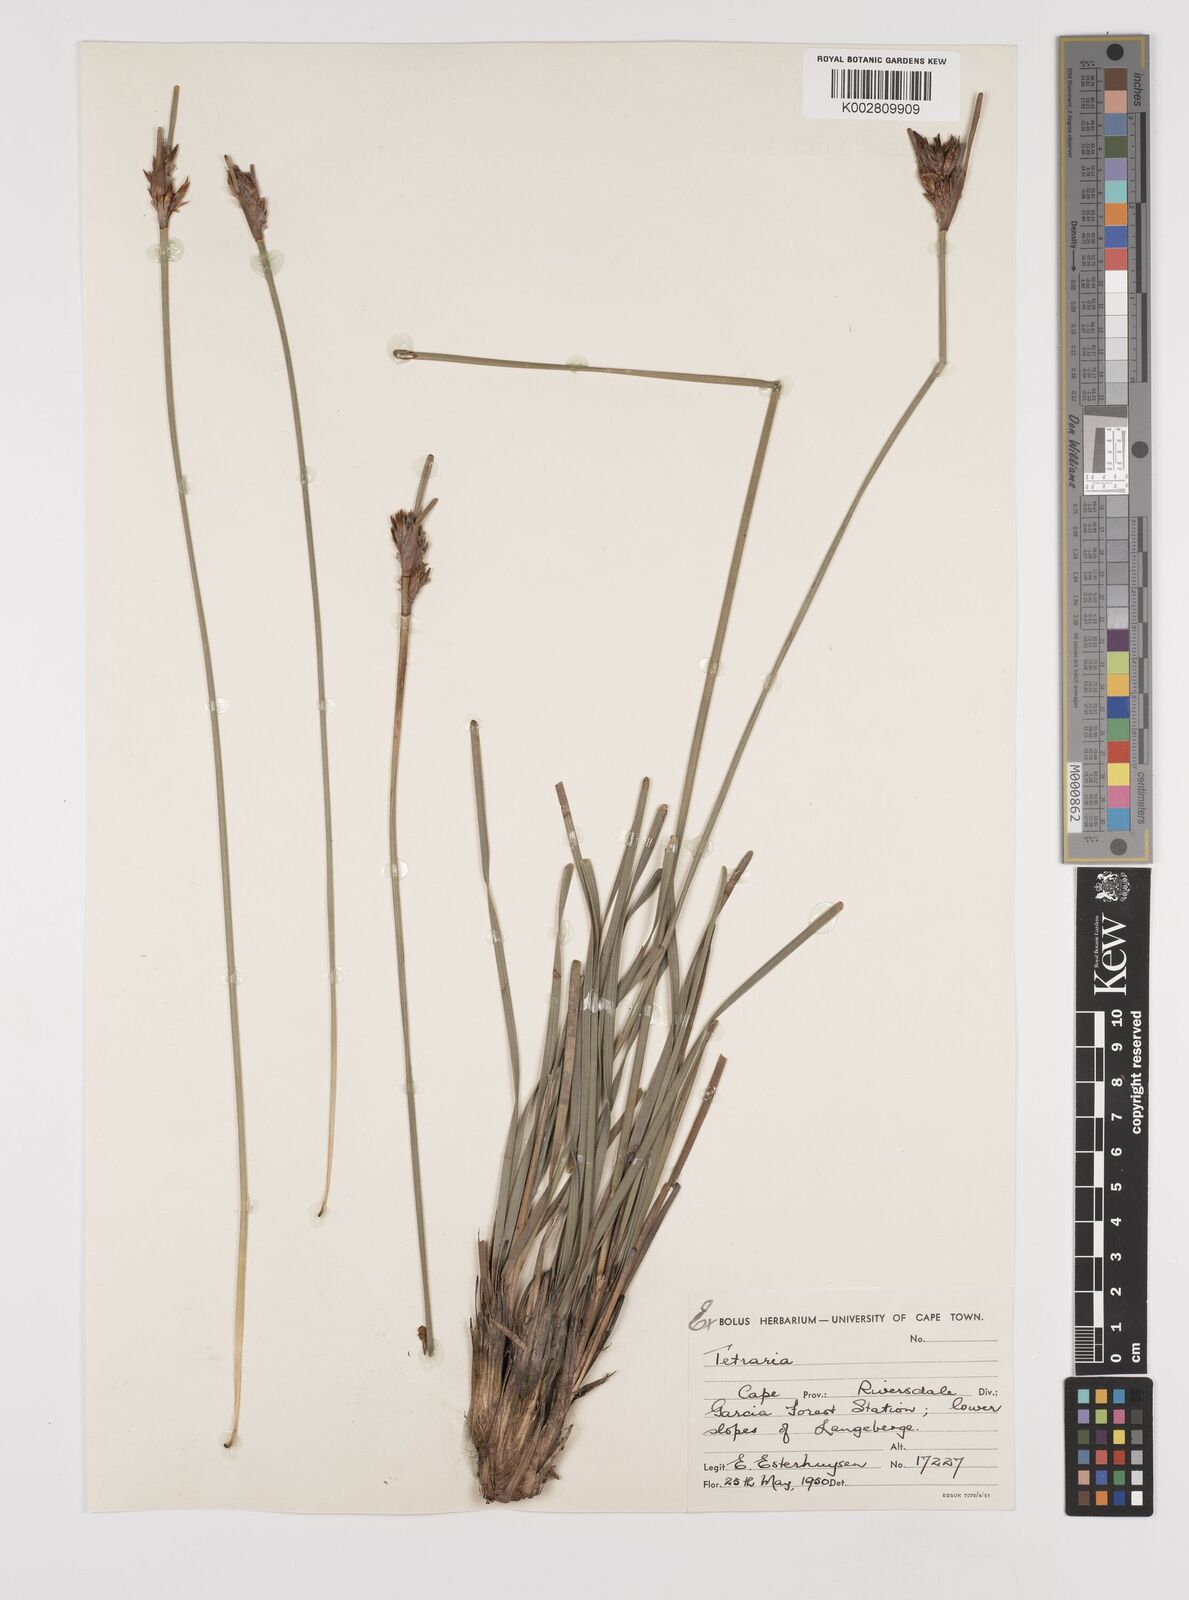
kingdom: Plantae
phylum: Tracheophyta
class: Liliopsida
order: Poales
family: Cyperaceae
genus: Schoenus
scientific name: Schoenus megacarpus
